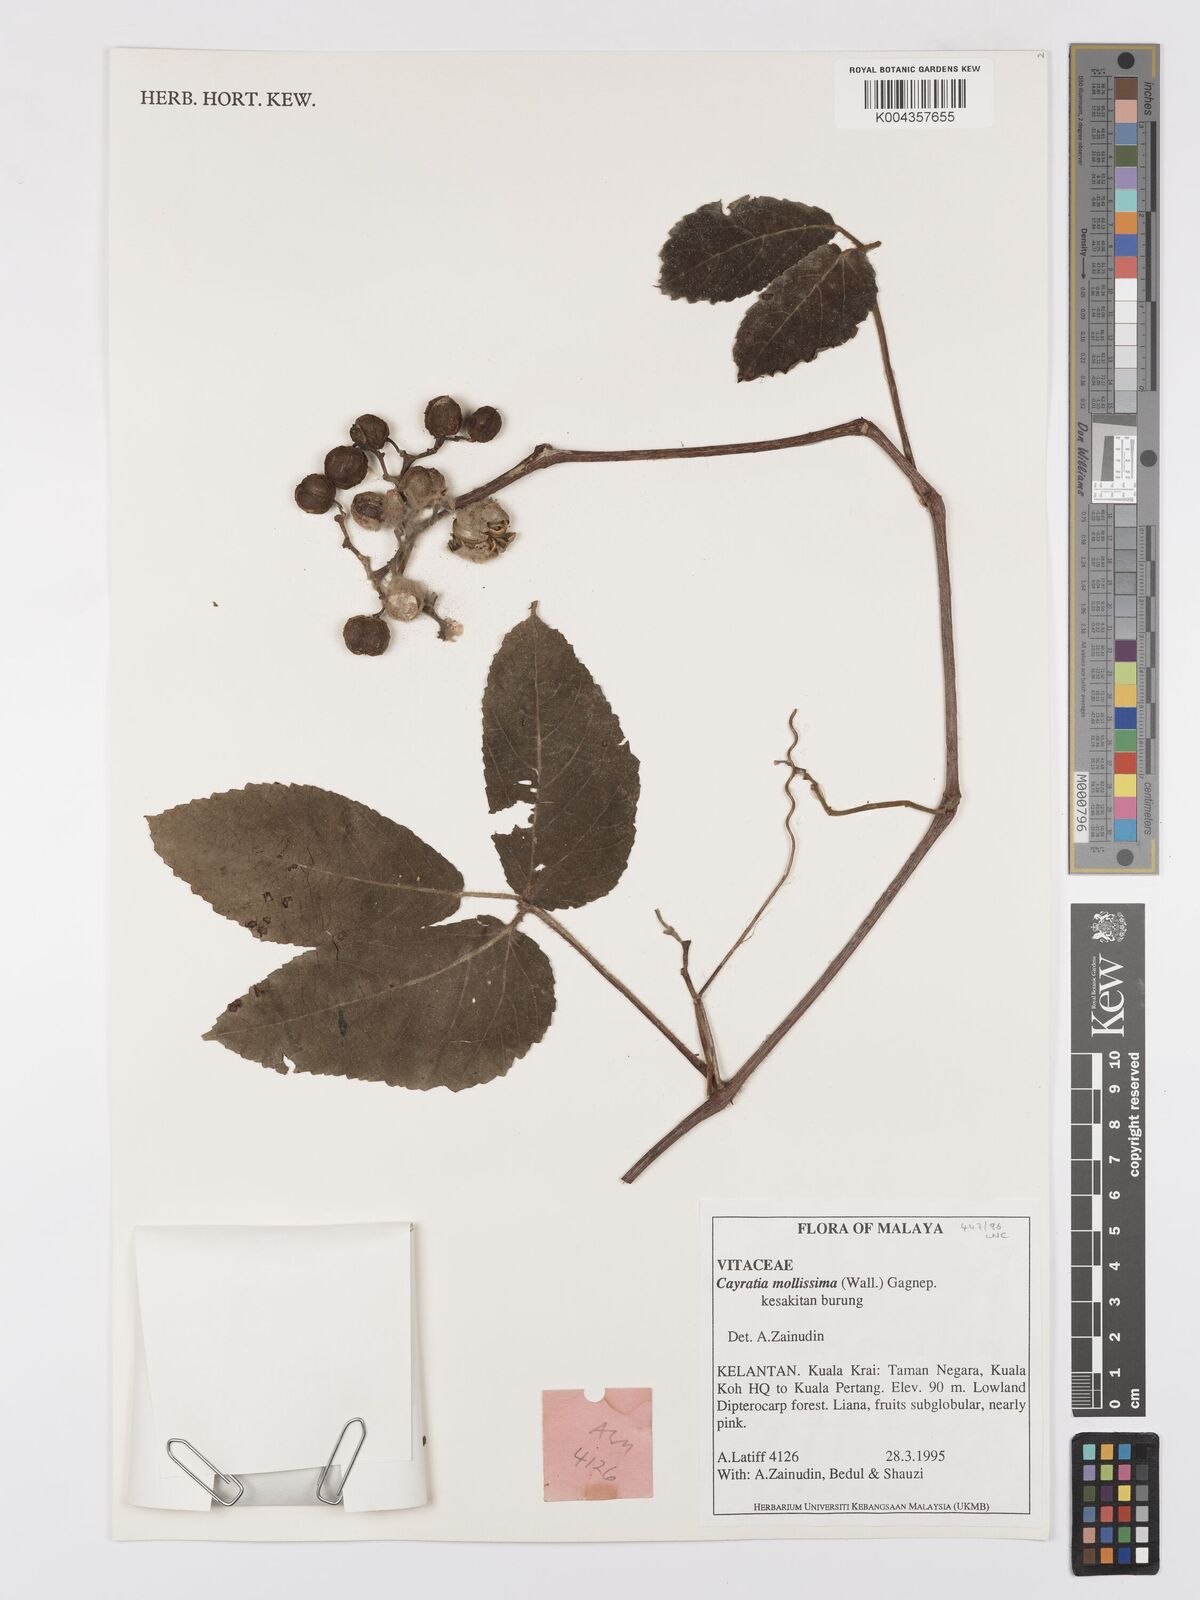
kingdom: Plantae
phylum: Tracheophyta
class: Magnoliopsida
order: Vitales
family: Vitaceae
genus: Cayratia
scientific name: Cayratia mollissima
